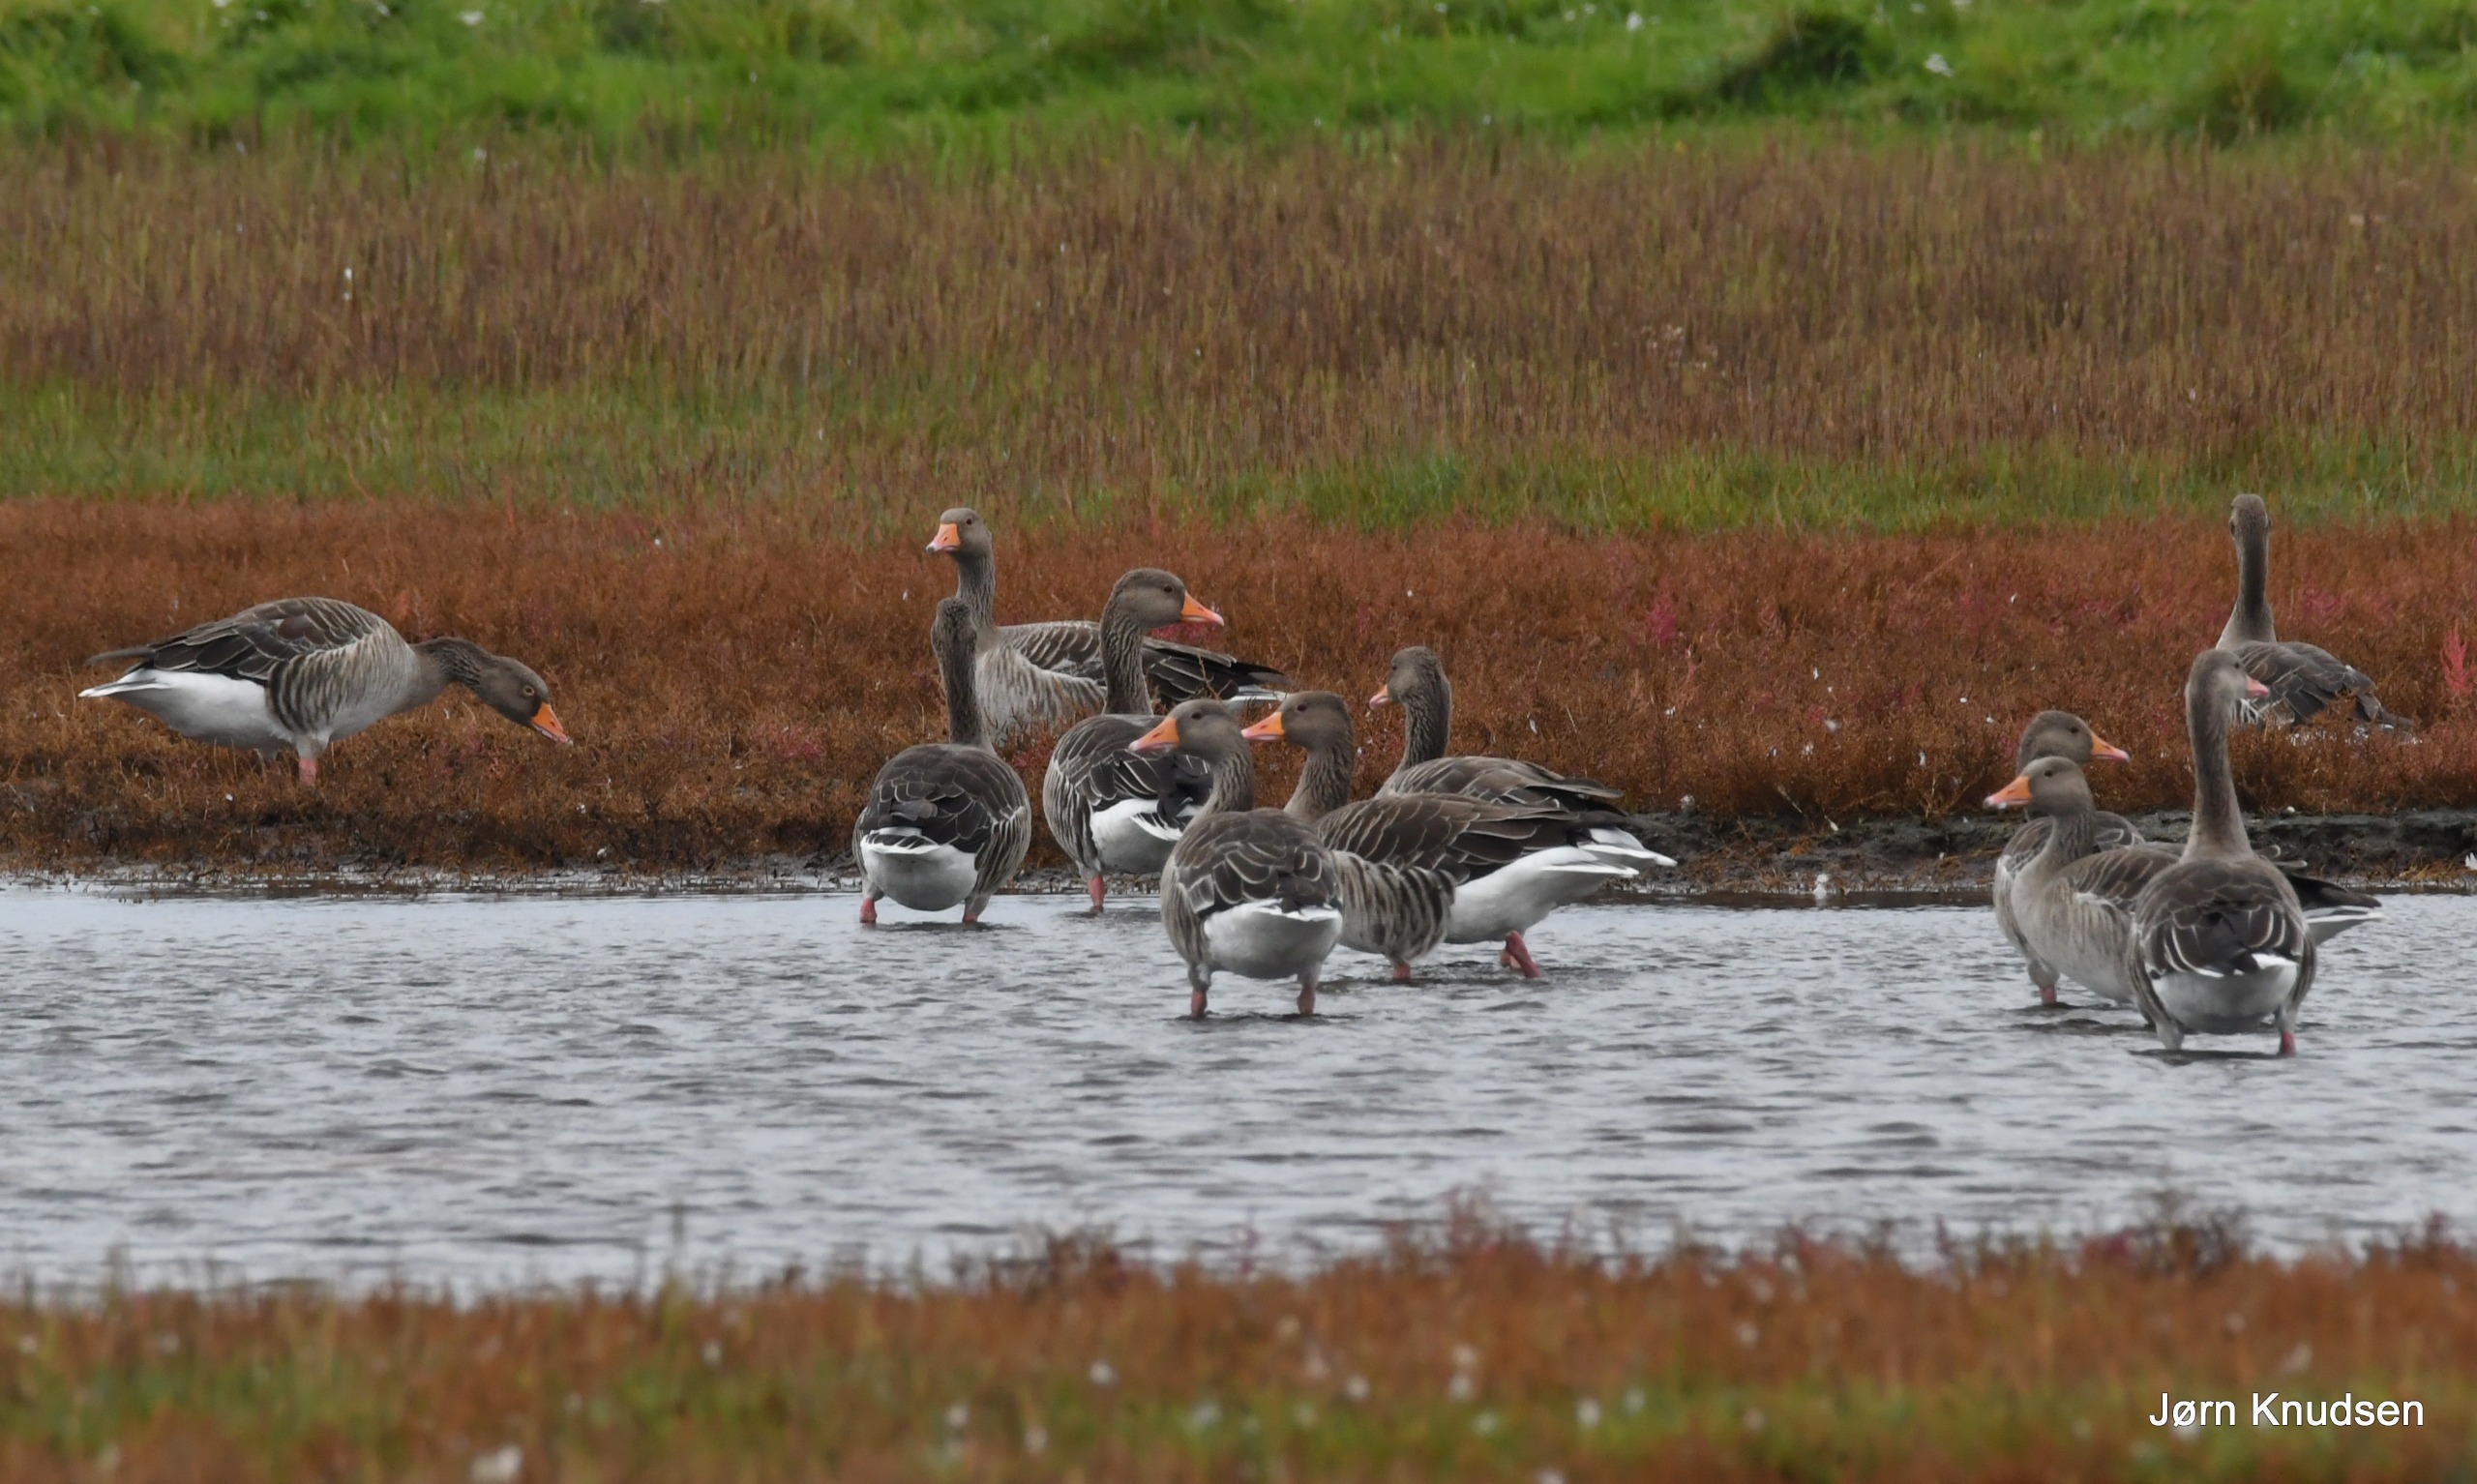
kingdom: Animalia
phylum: Chordata
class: Aves
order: Anseriformes
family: Anatidae
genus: Anser
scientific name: Anser anser
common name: Grågås
